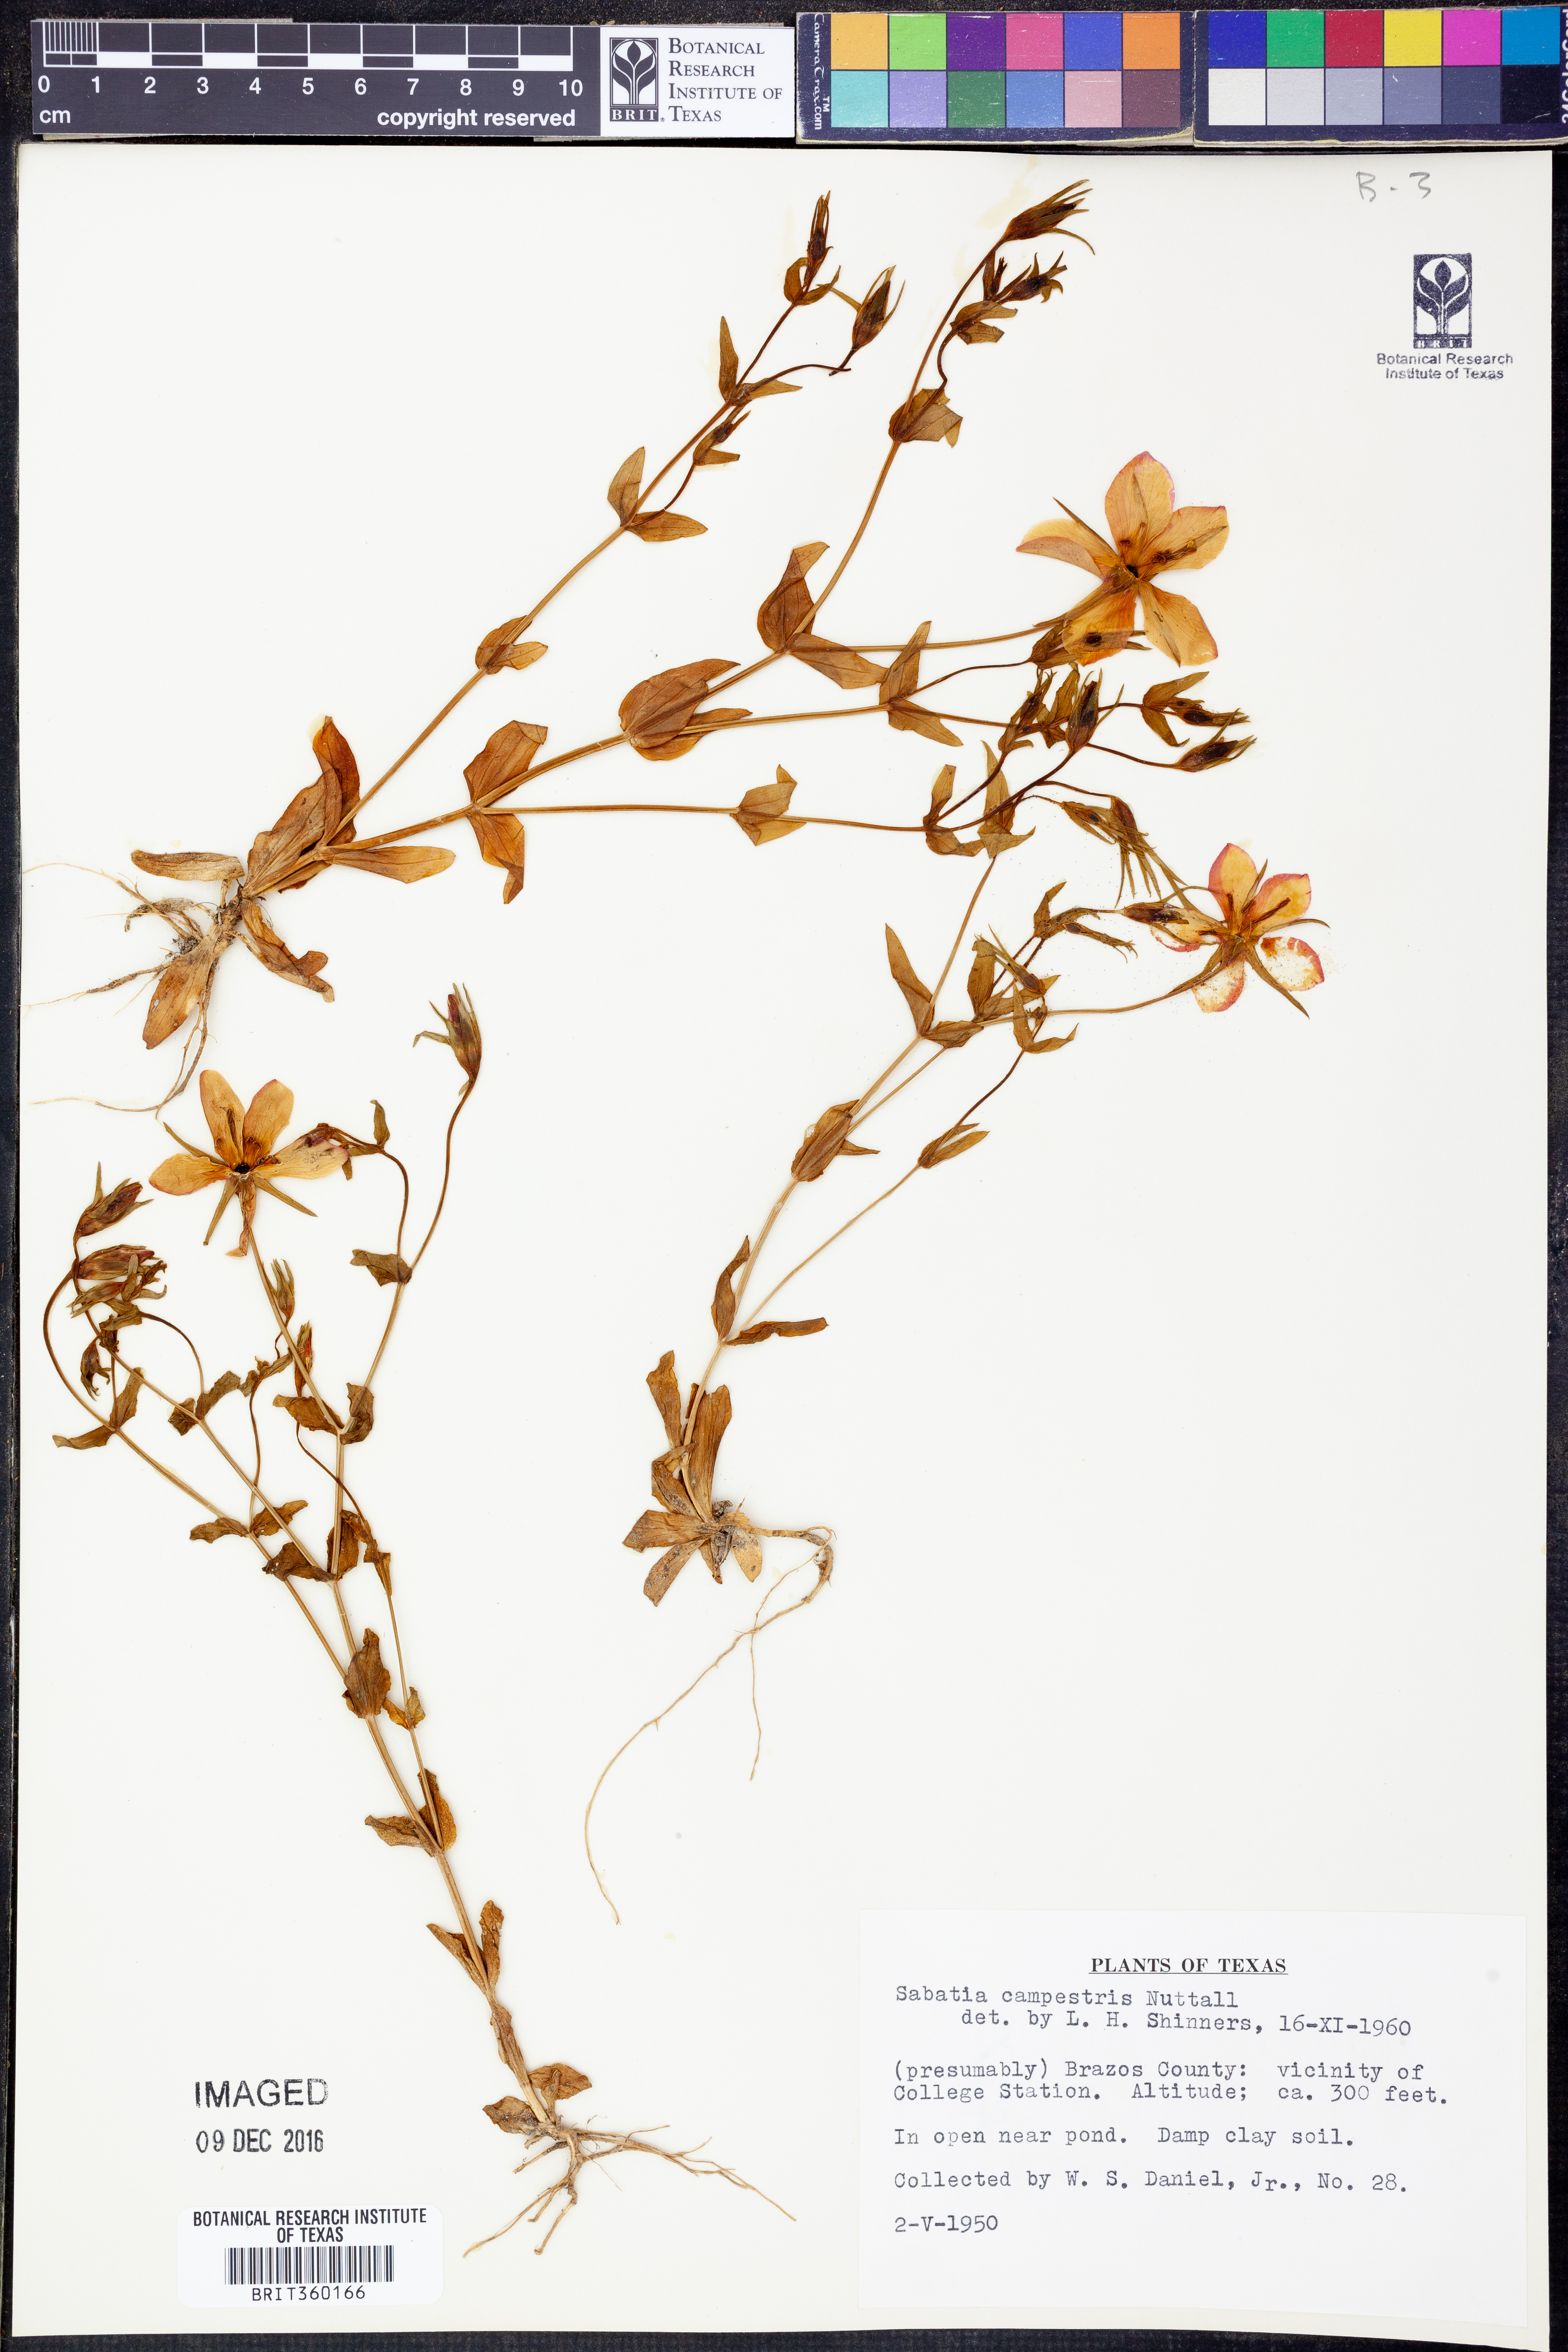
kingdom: Plantae
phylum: Tracheophyta
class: Magnoliopsida
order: Gentianales
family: Gentianaceae
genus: Sabatia
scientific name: Sabatia campestris
